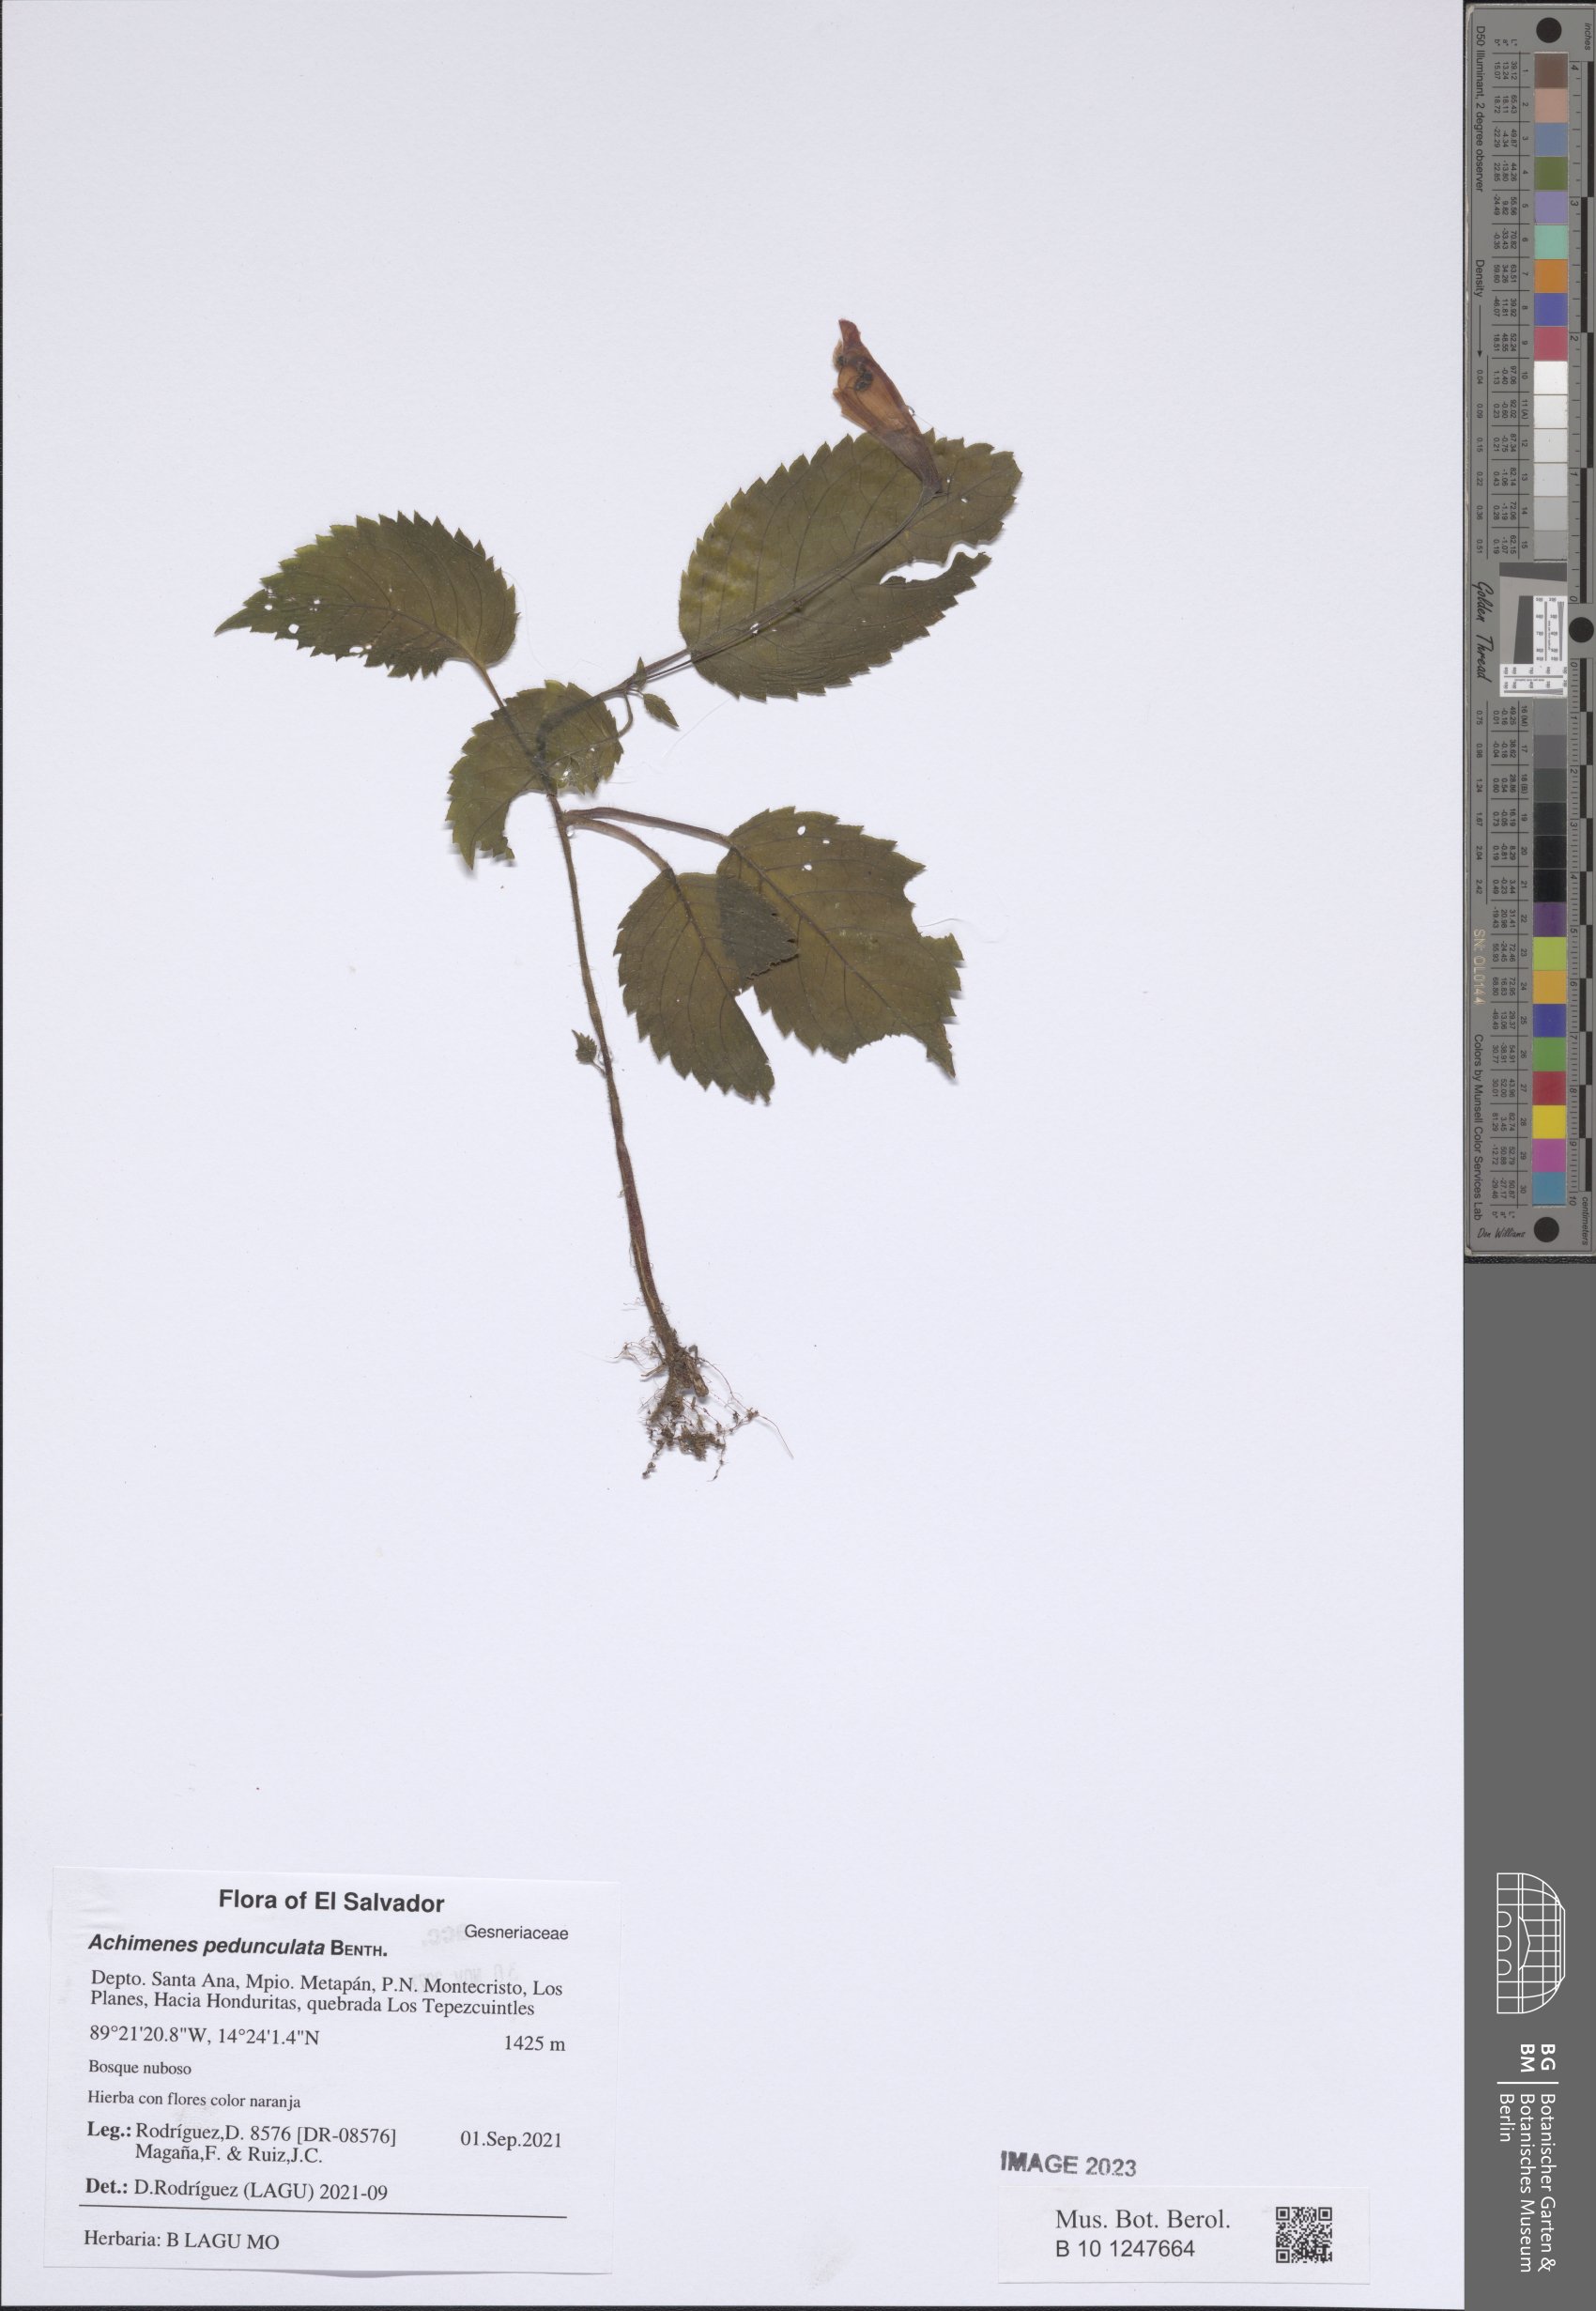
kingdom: Plantae
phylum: Tracheophyta
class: Magnoliopsida
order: Lamiales
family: Gesneriaceae
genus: Achimenes
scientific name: Achimenes pedunculata
